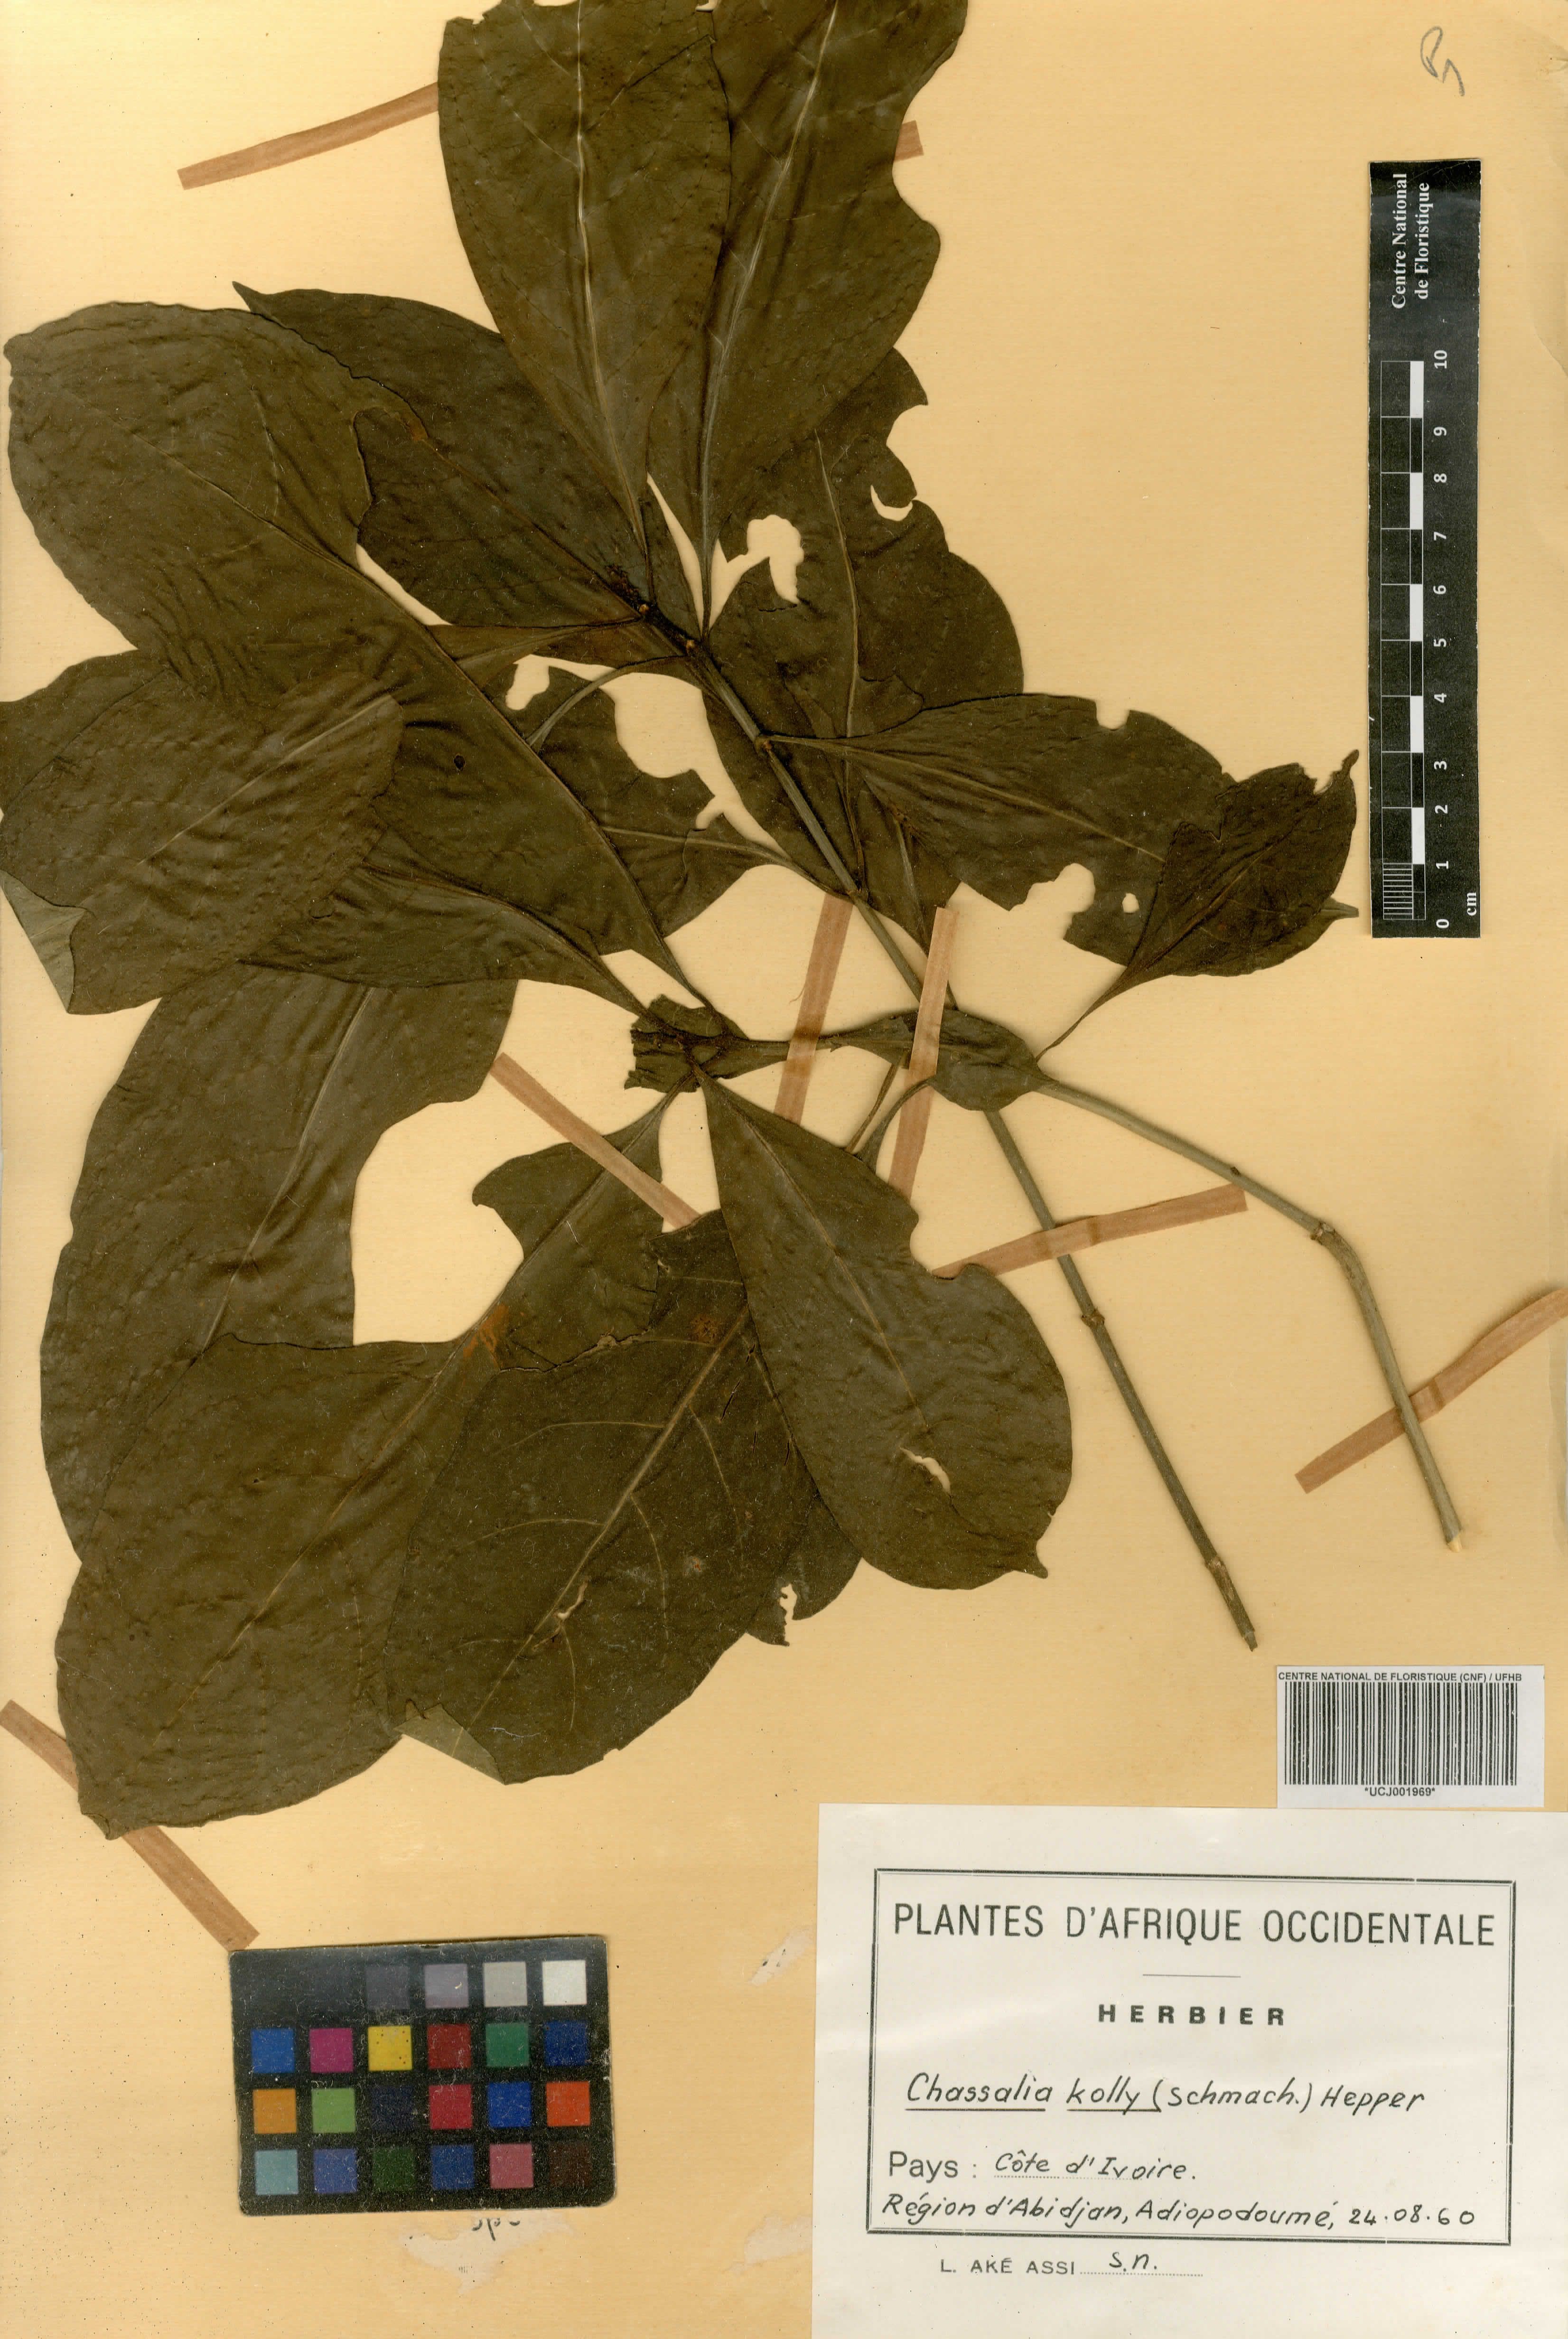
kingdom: Plantae
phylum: Tracheophyta
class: Magnoliopsida
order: Gentianales
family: Rubiaceae
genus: Chassalia
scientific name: Chassalia kolly
